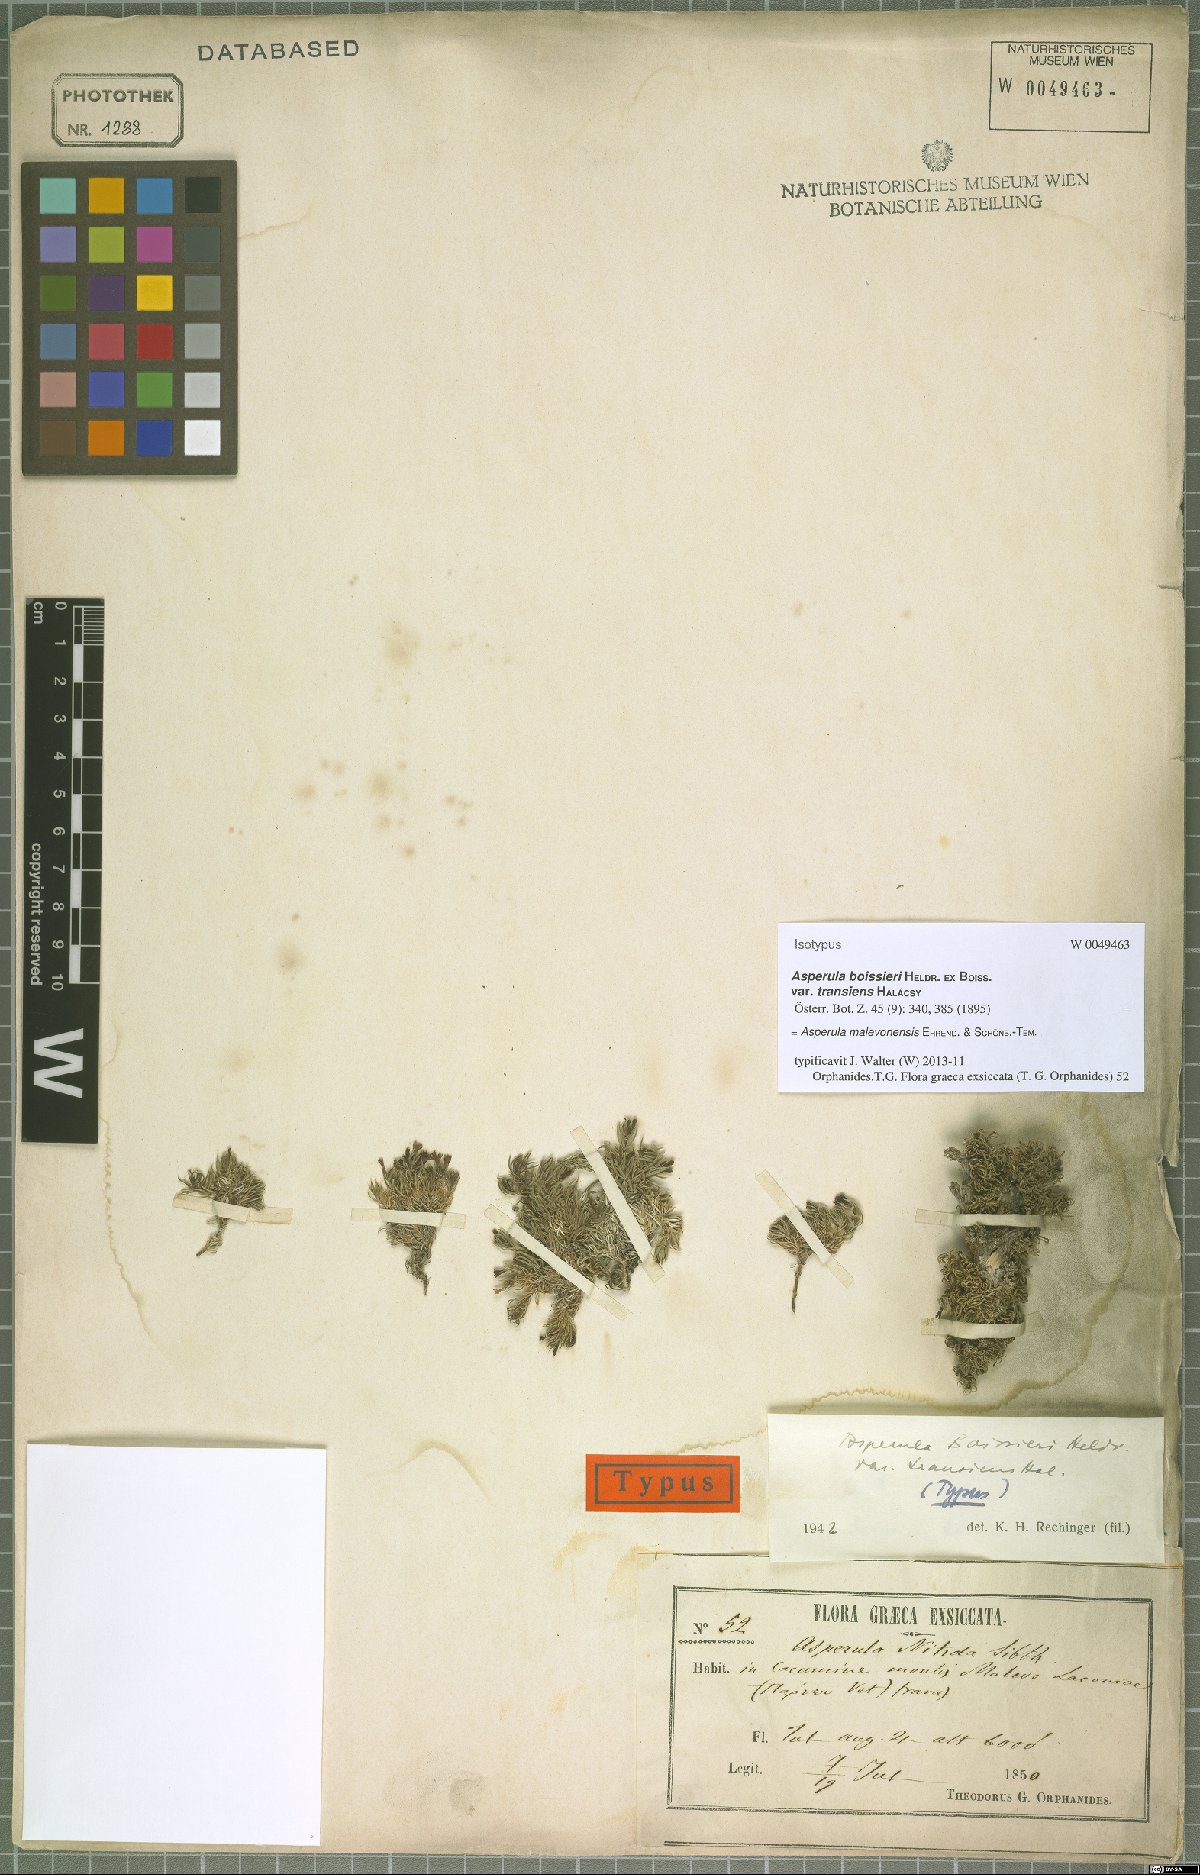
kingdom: Plantae
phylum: Tracheophyta
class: Magnoliopsida
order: Gentianales
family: Rubiaceae
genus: Cynanchica
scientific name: Cynanchica malevonensis
